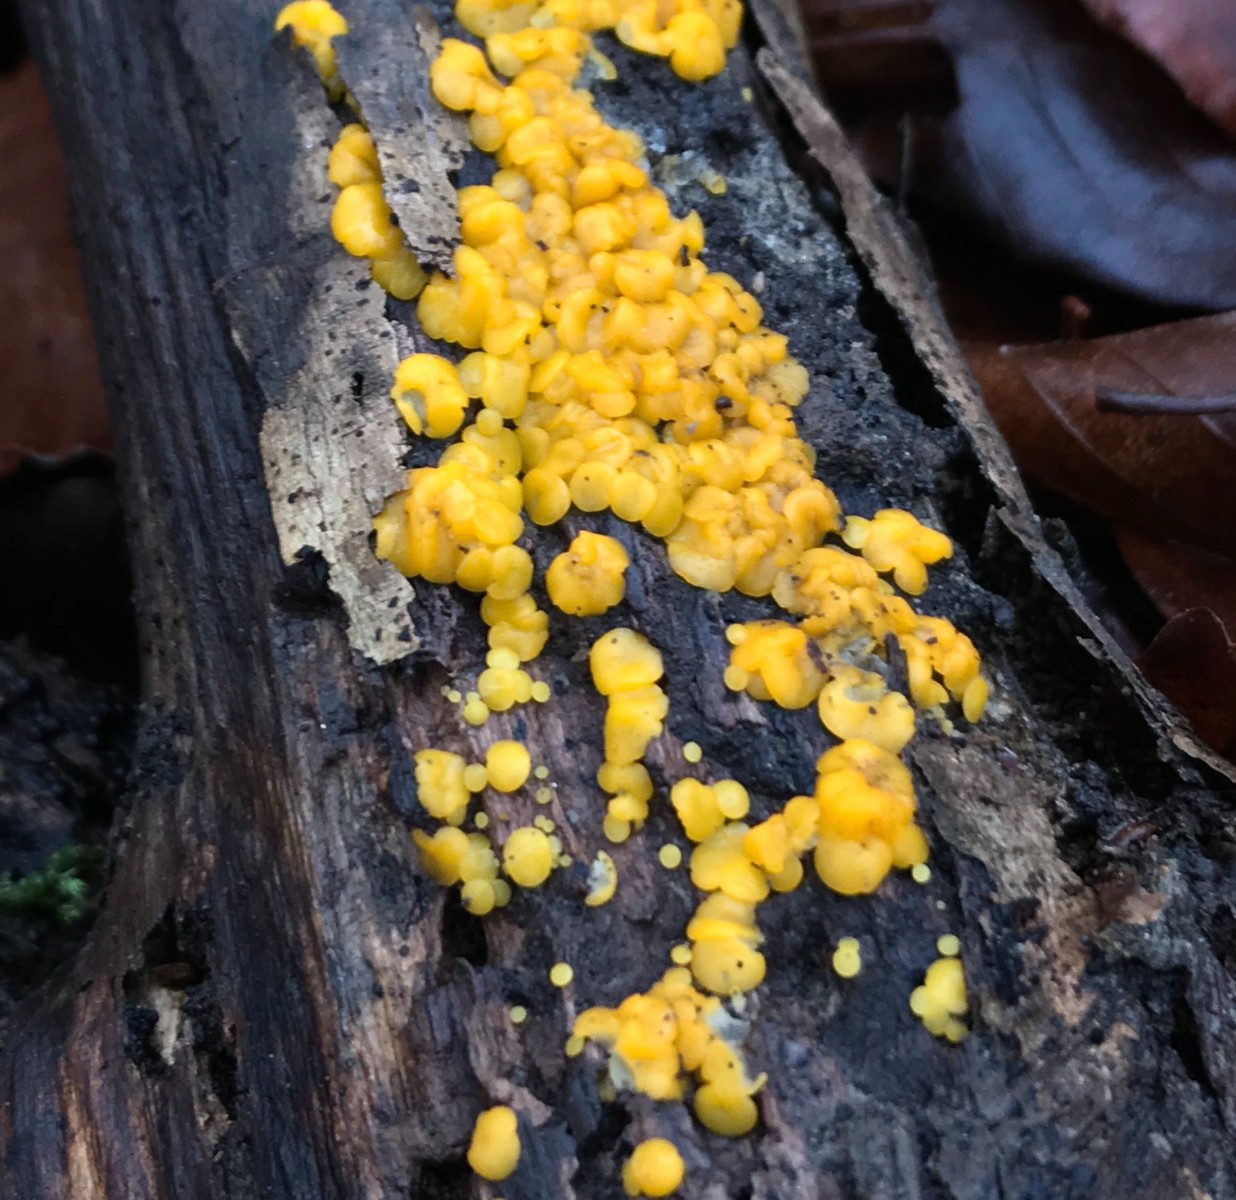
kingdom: Fungi
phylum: Ascomycota
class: Leotiomycetes
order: Helotiales
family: Pezizellaceae
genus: Calycina
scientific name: Calycina citrina
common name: almindelig gulskive
